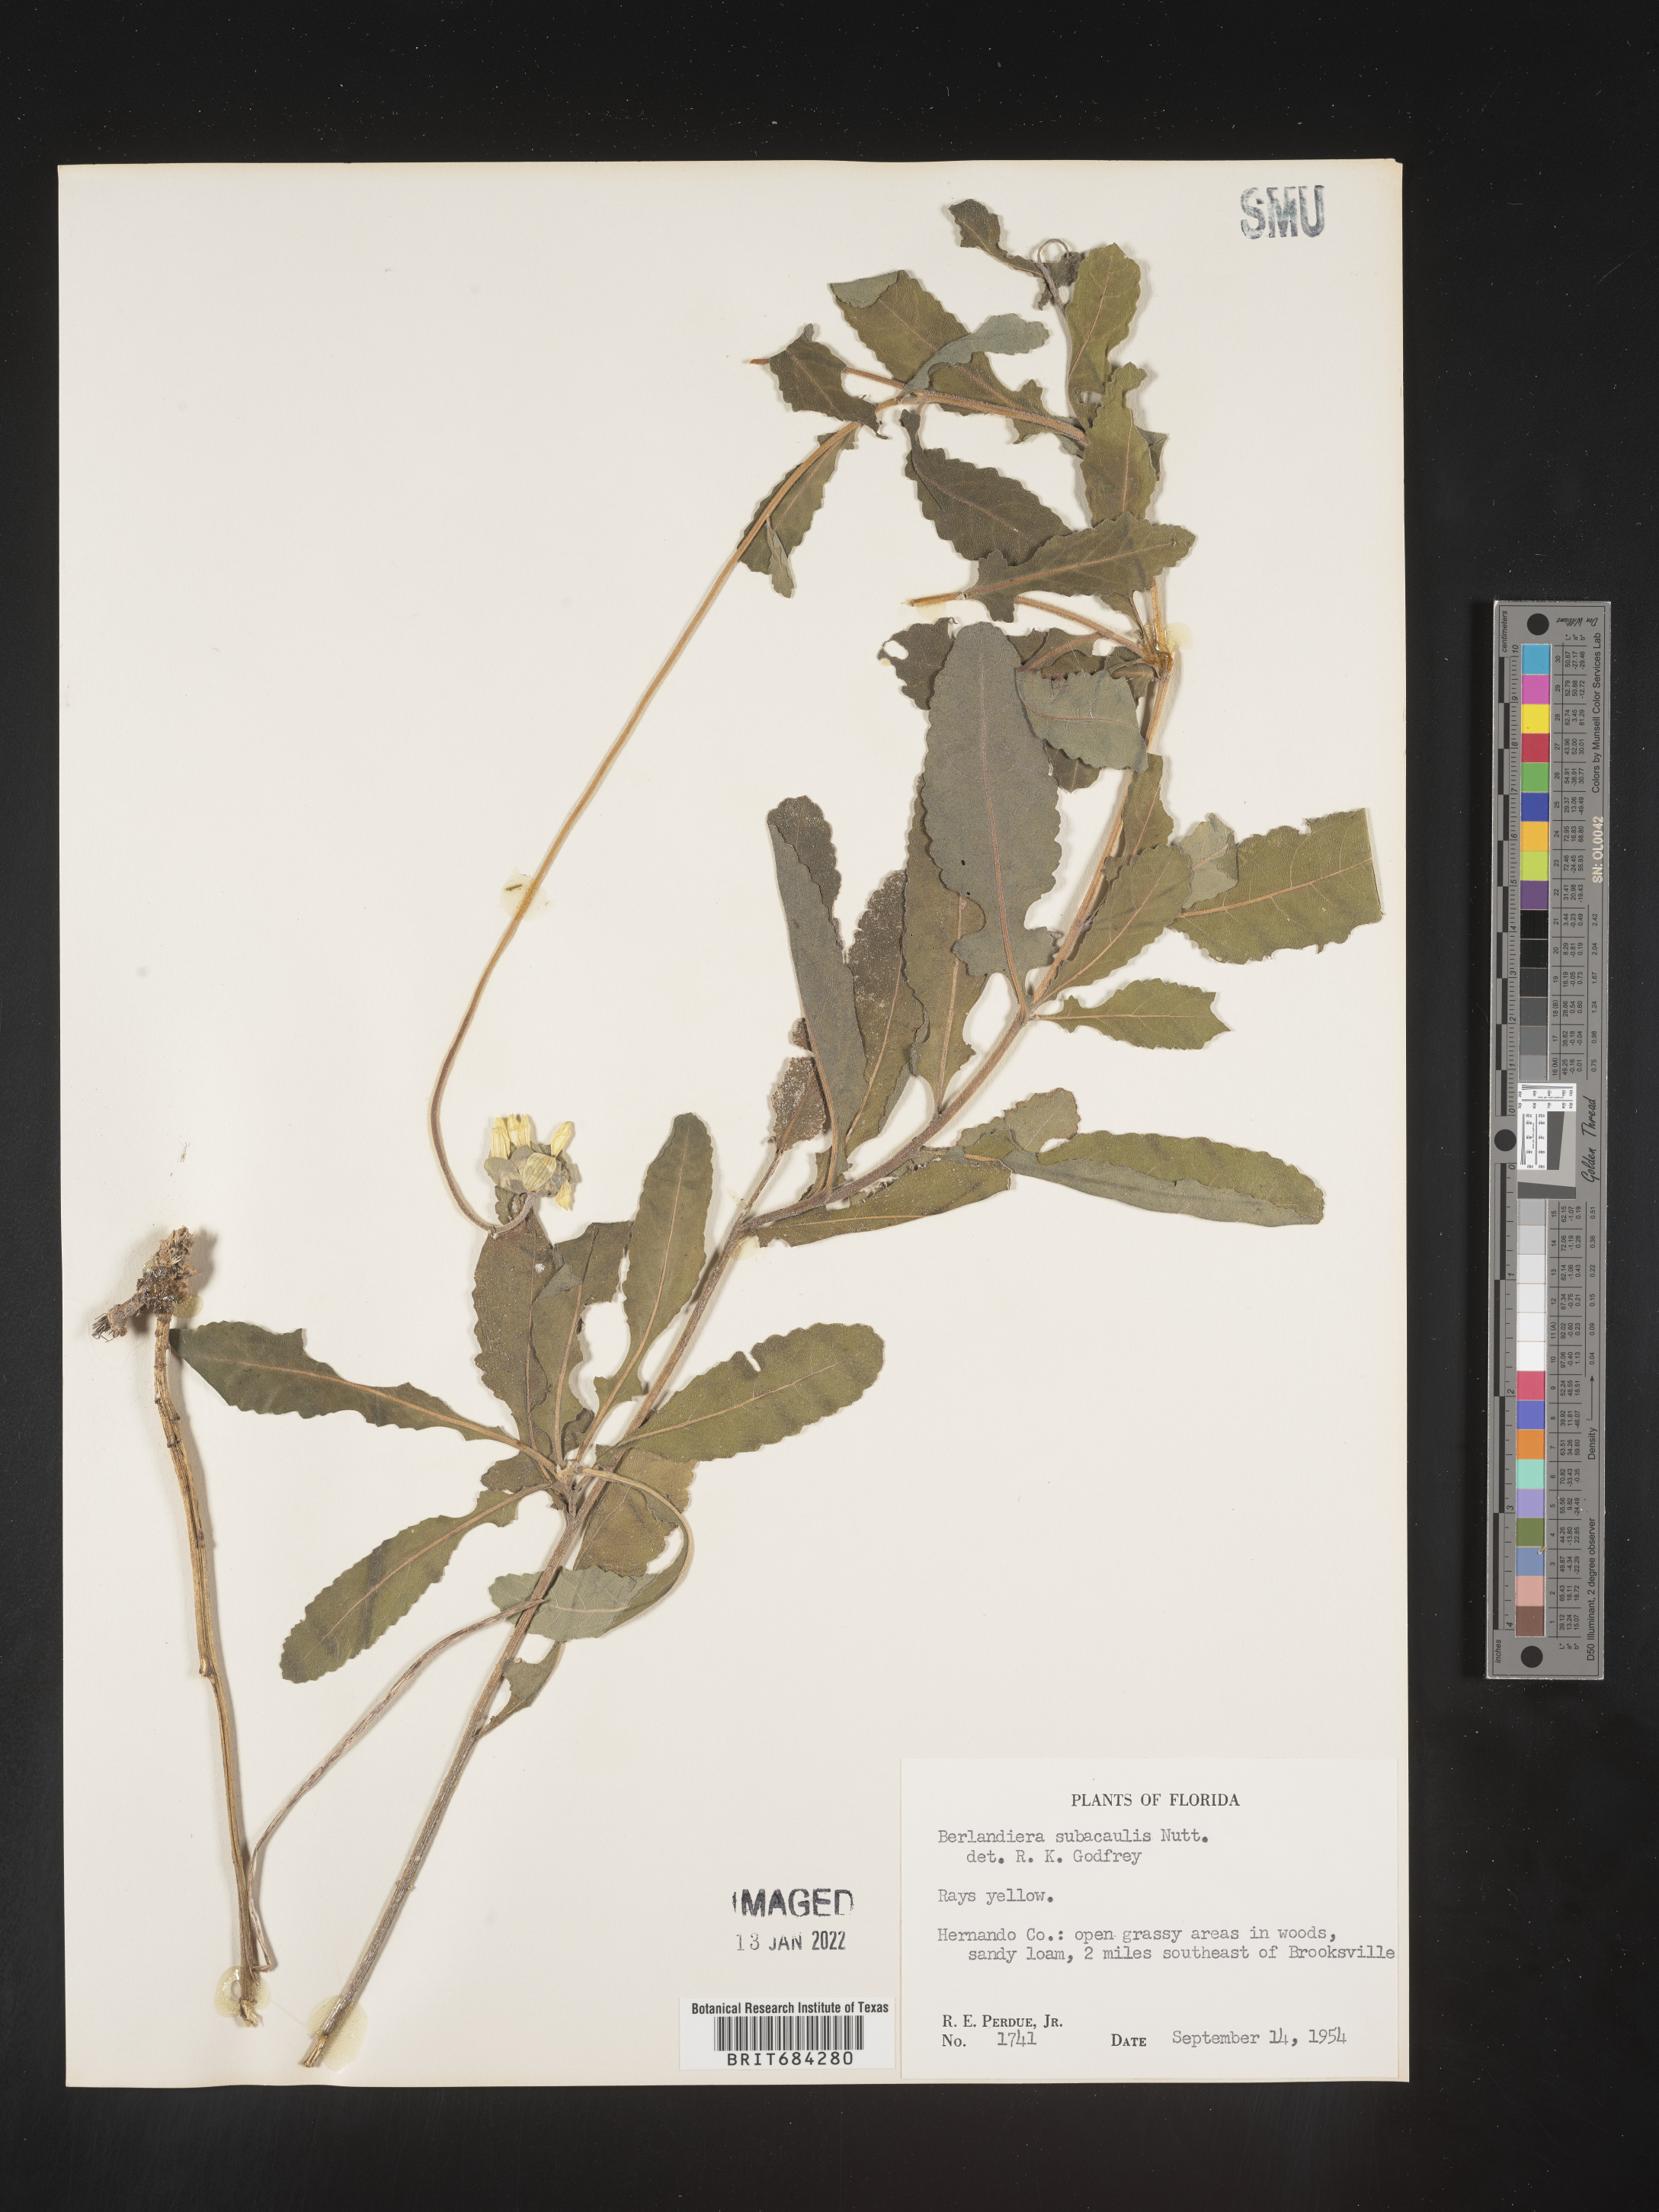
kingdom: Plantae
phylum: Tracheophyta
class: Magnoliopsida
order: Asterales
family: Asteraceae
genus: Berlandiera
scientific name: Berlandiera subacaulis
